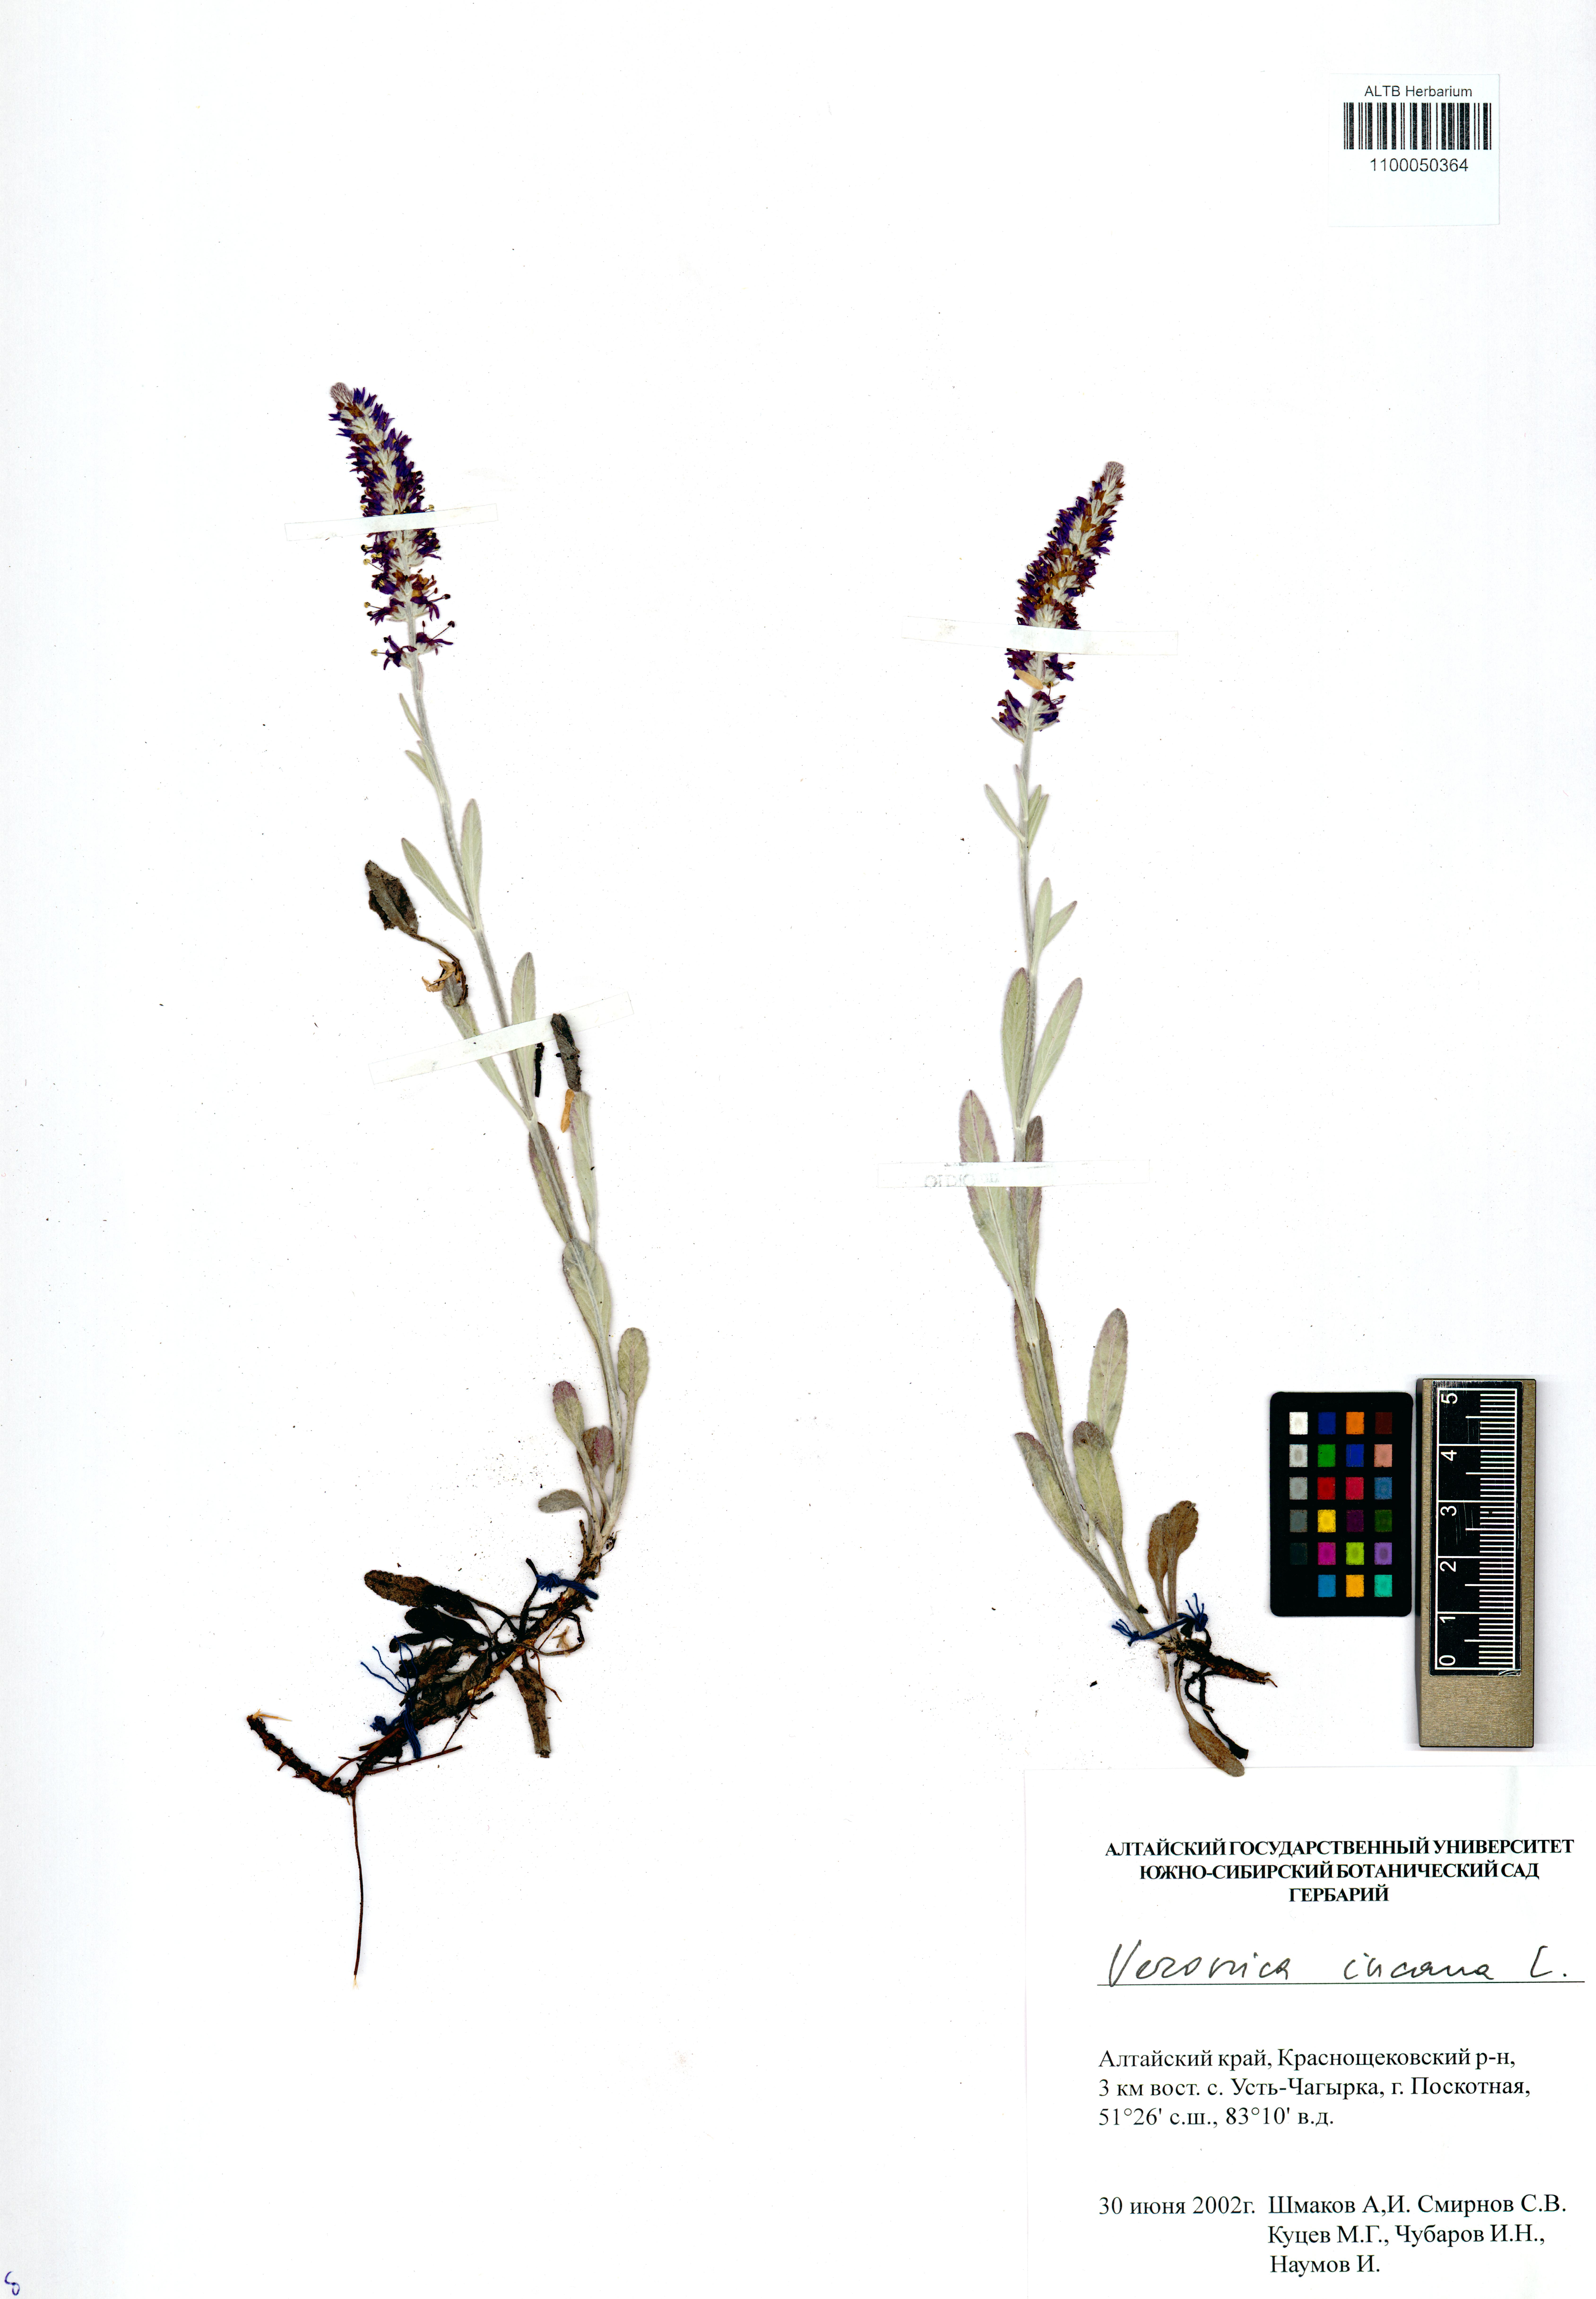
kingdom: Plantae
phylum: Tracheophyta
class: Magnoliopsida
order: Lamiales
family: Plantaginaceae
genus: Veronica
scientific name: Veronica incana
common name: Silver speedwell
